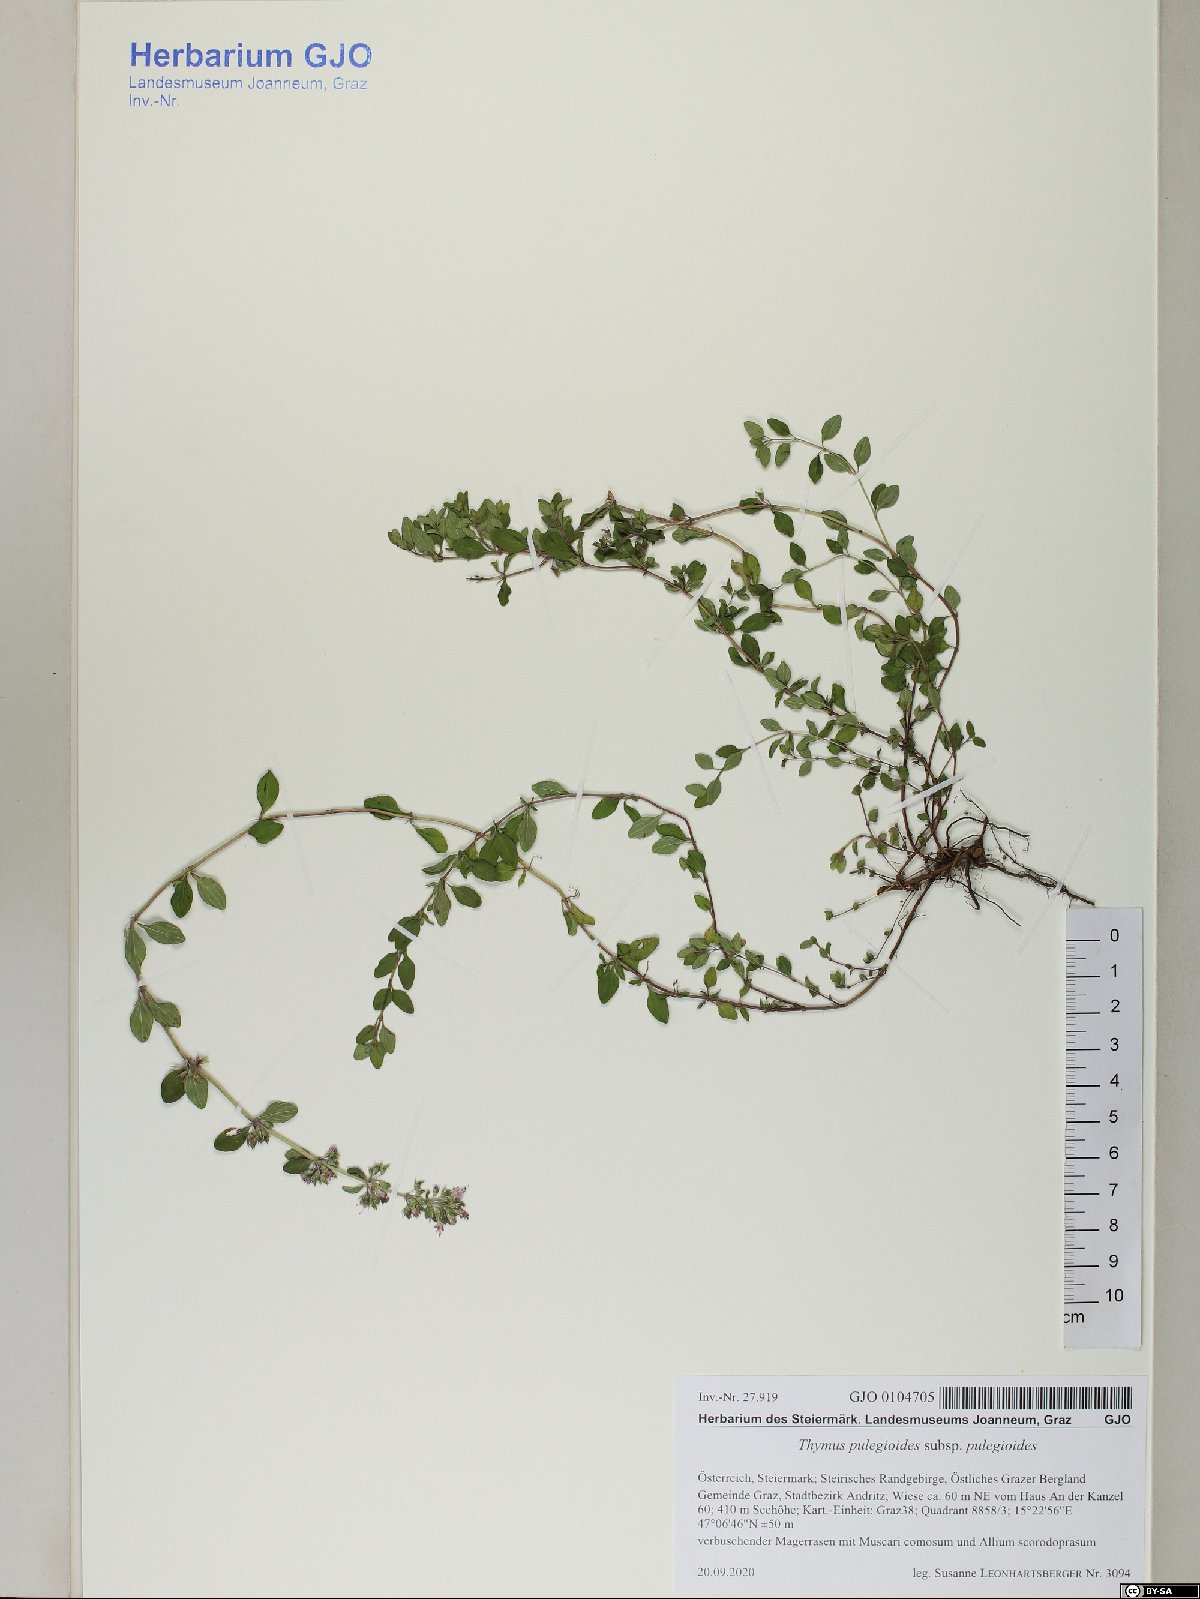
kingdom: Plantae
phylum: Tracheophyta
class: Magnoliopsida
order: Lamiales
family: Lamiaceae
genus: Thymus
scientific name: Thymus pulegioides
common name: Large thyme
